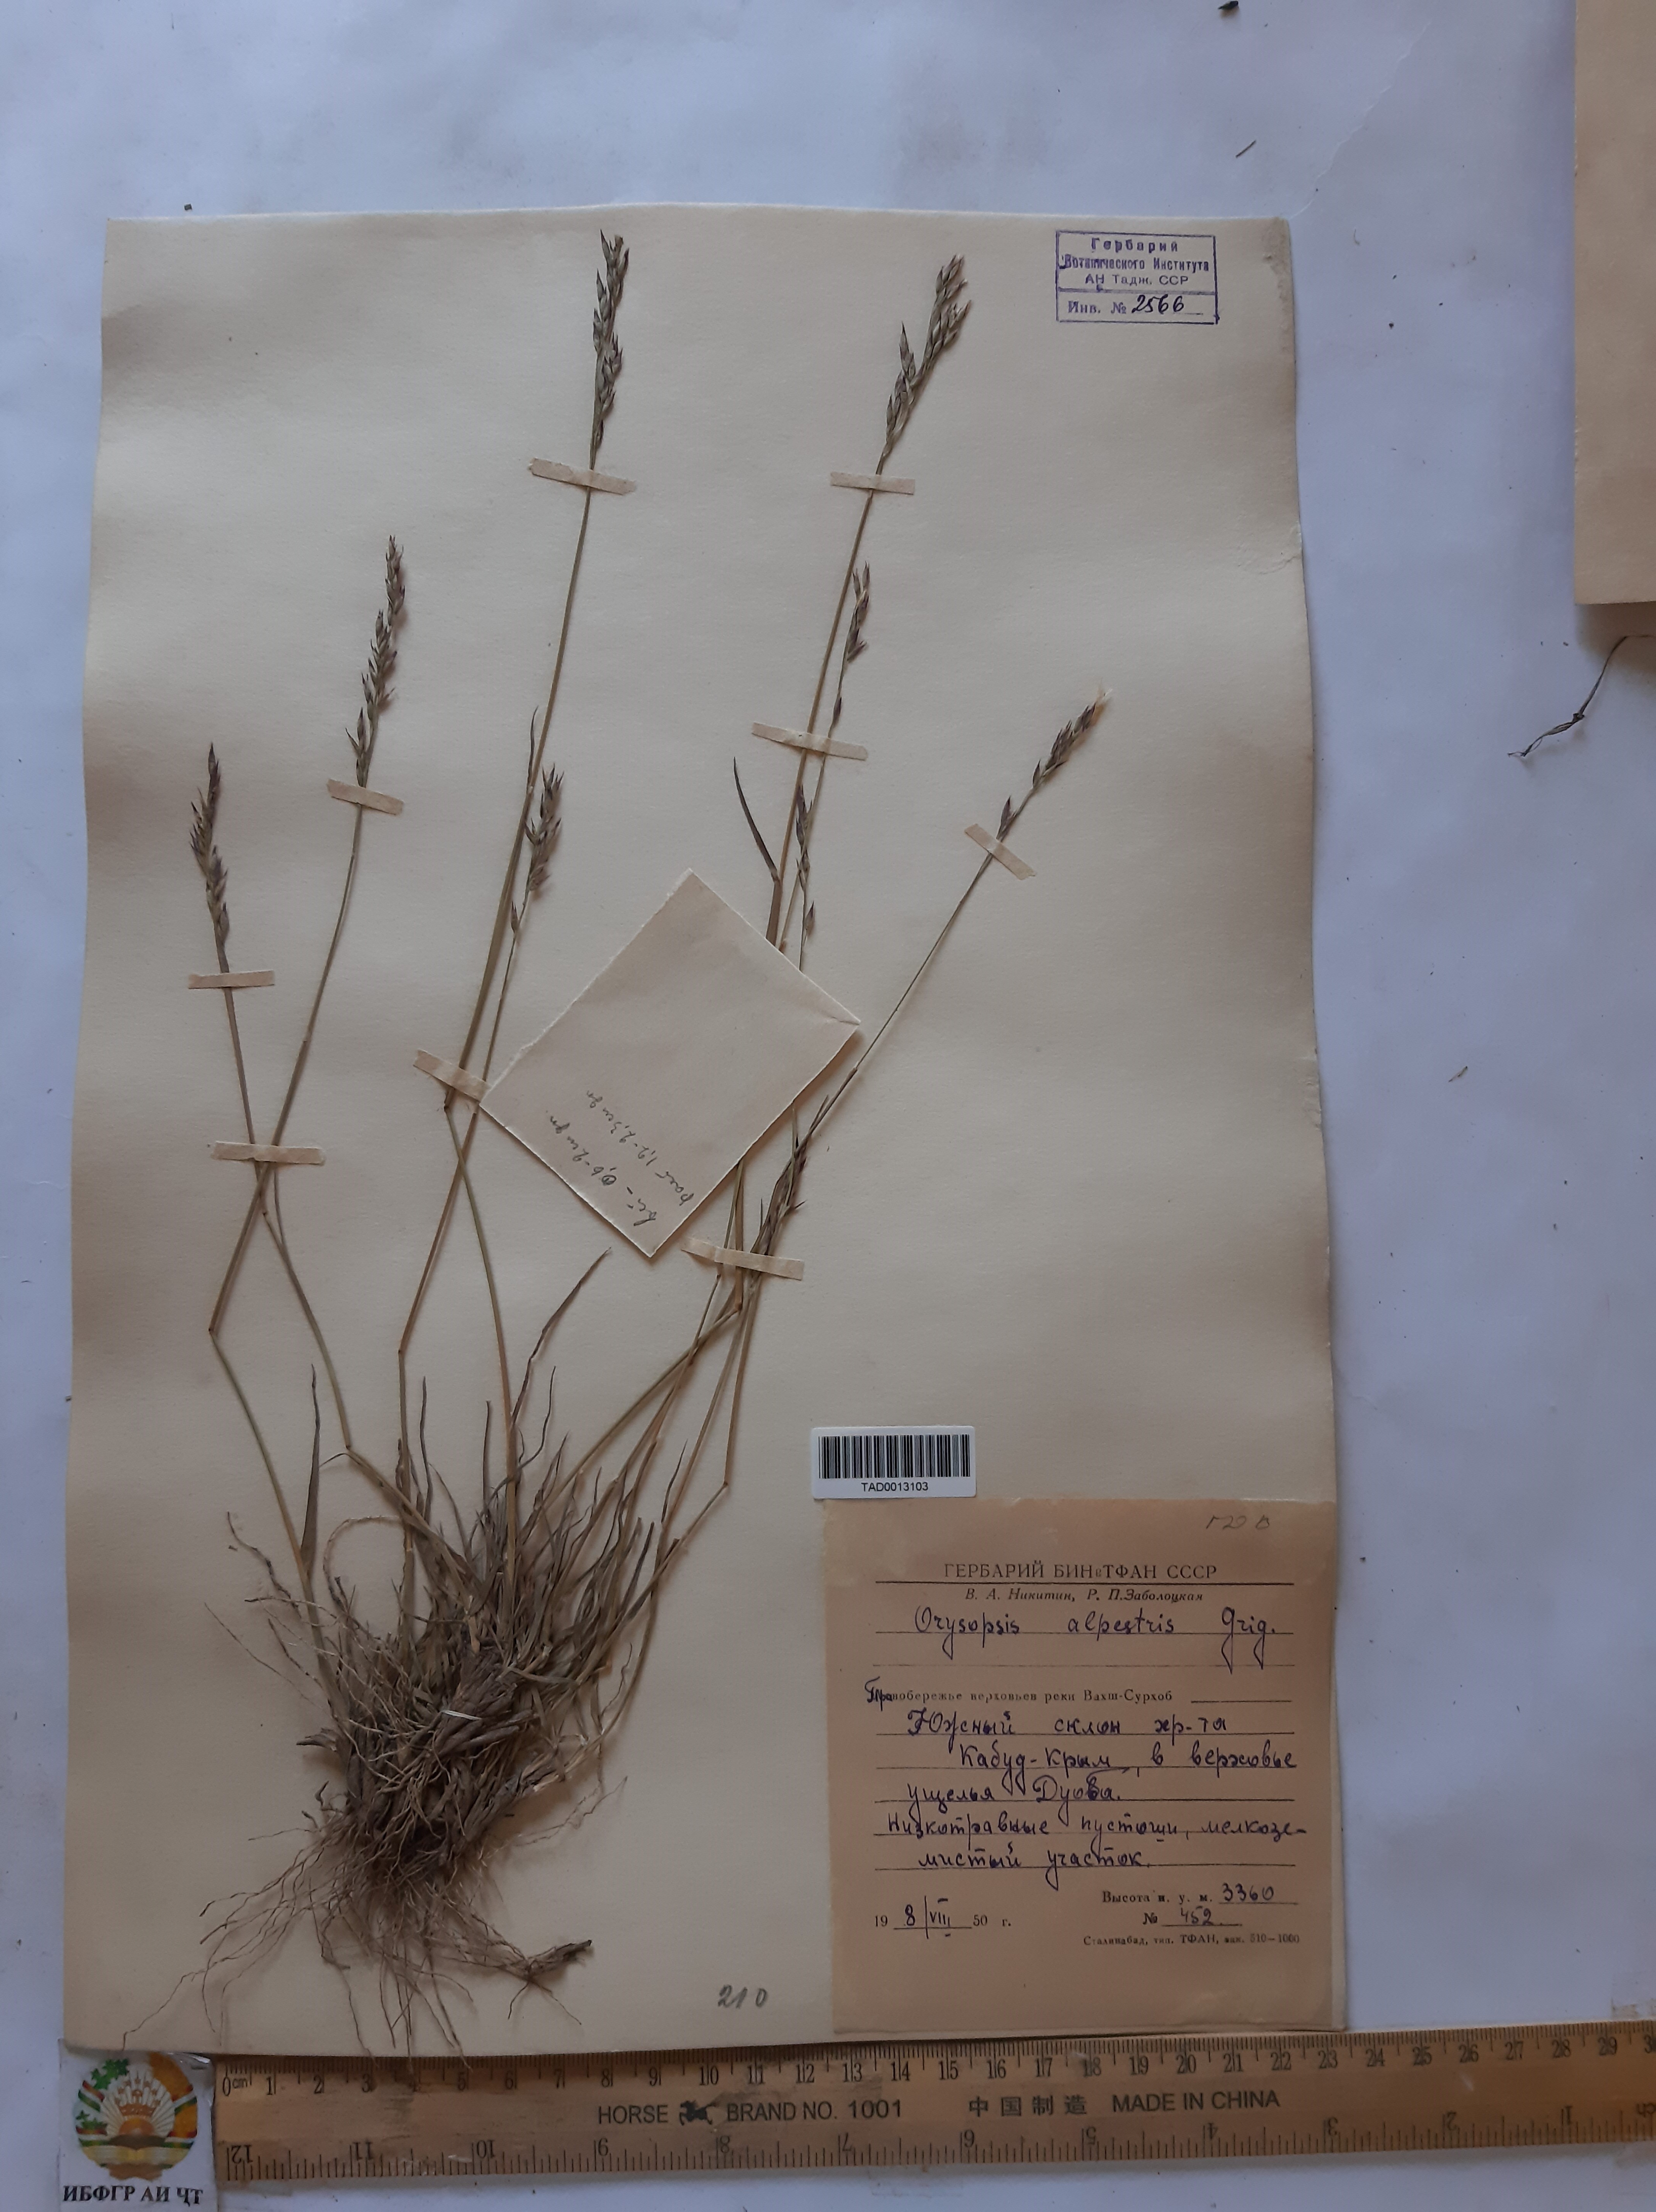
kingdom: Plantae
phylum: Tracheophyta
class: Liliopsida
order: Poales
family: Poaceae
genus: Piptatherum
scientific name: Piptatherum alpestre
